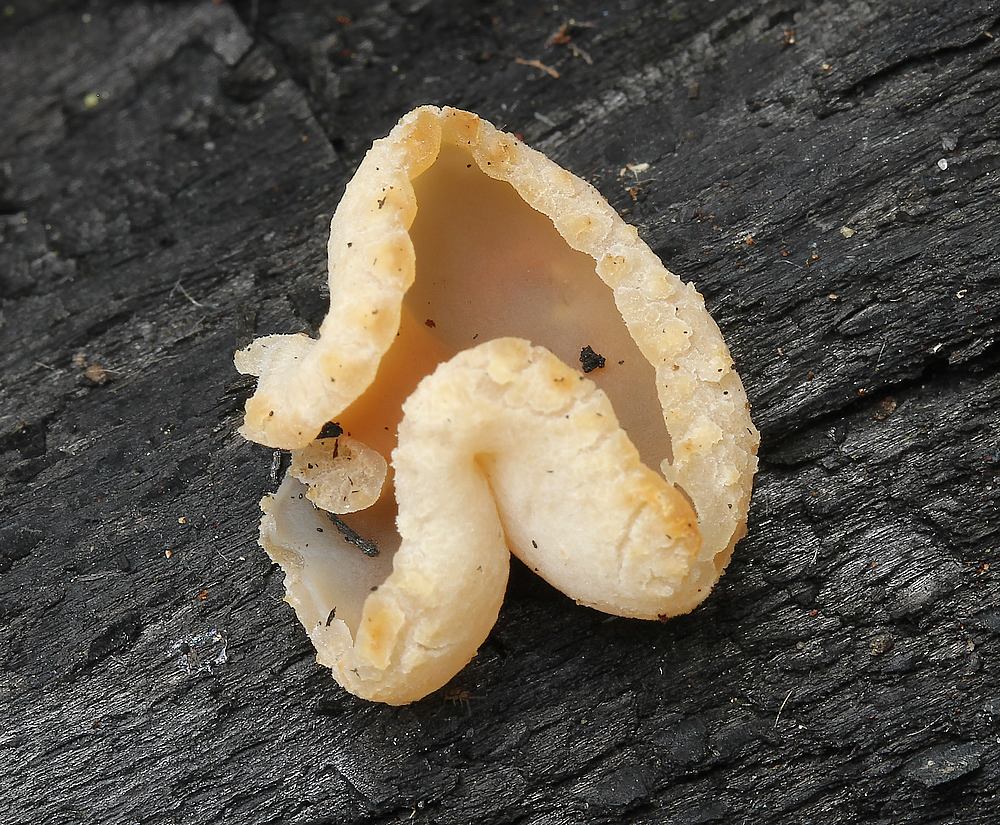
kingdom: Fungi
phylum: Ascomycota
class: Pezizomycetes
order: Pezizales
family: Pezizaceae
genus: Peziza
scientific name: Peziza varia
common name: Ved-bægersvamp
